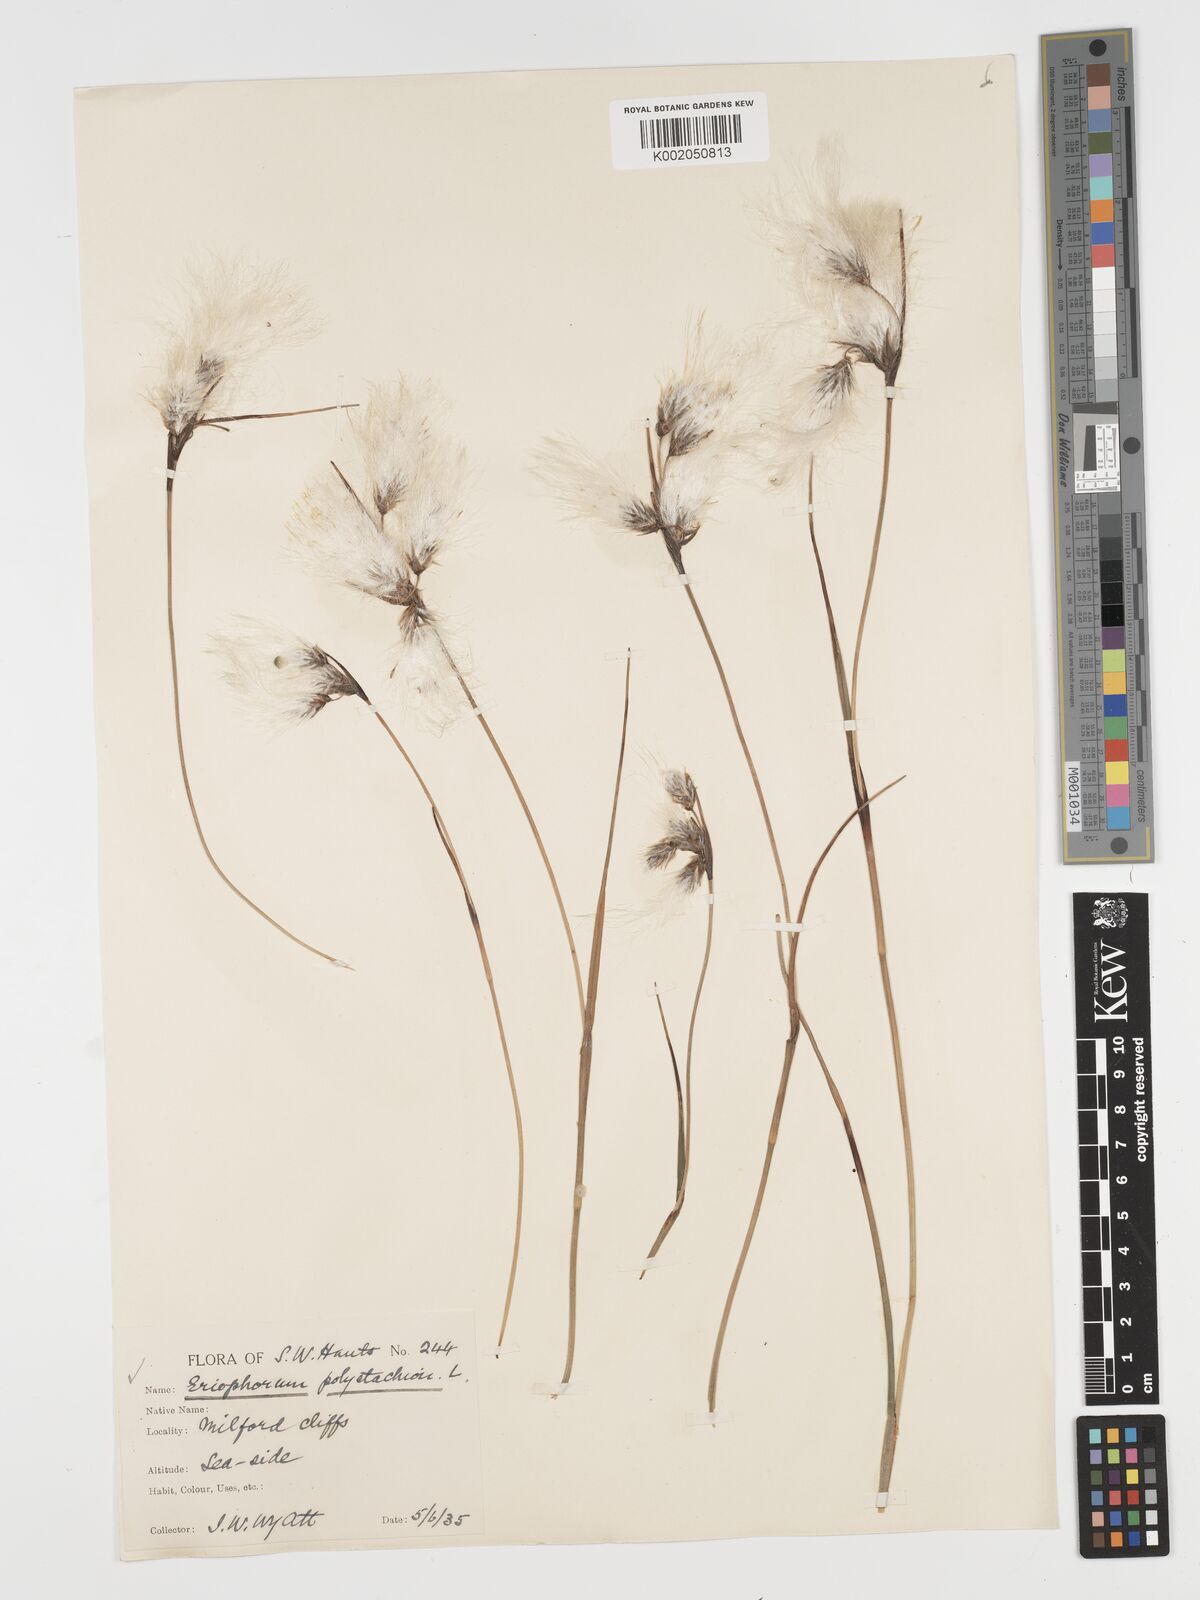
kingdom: Plantae
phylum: Tracheophyta
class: Liliopsida
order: Poales
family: Cyperaceae
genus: Eriophorum
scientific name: Eriophorum angustifolium
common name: Common cottongrass
